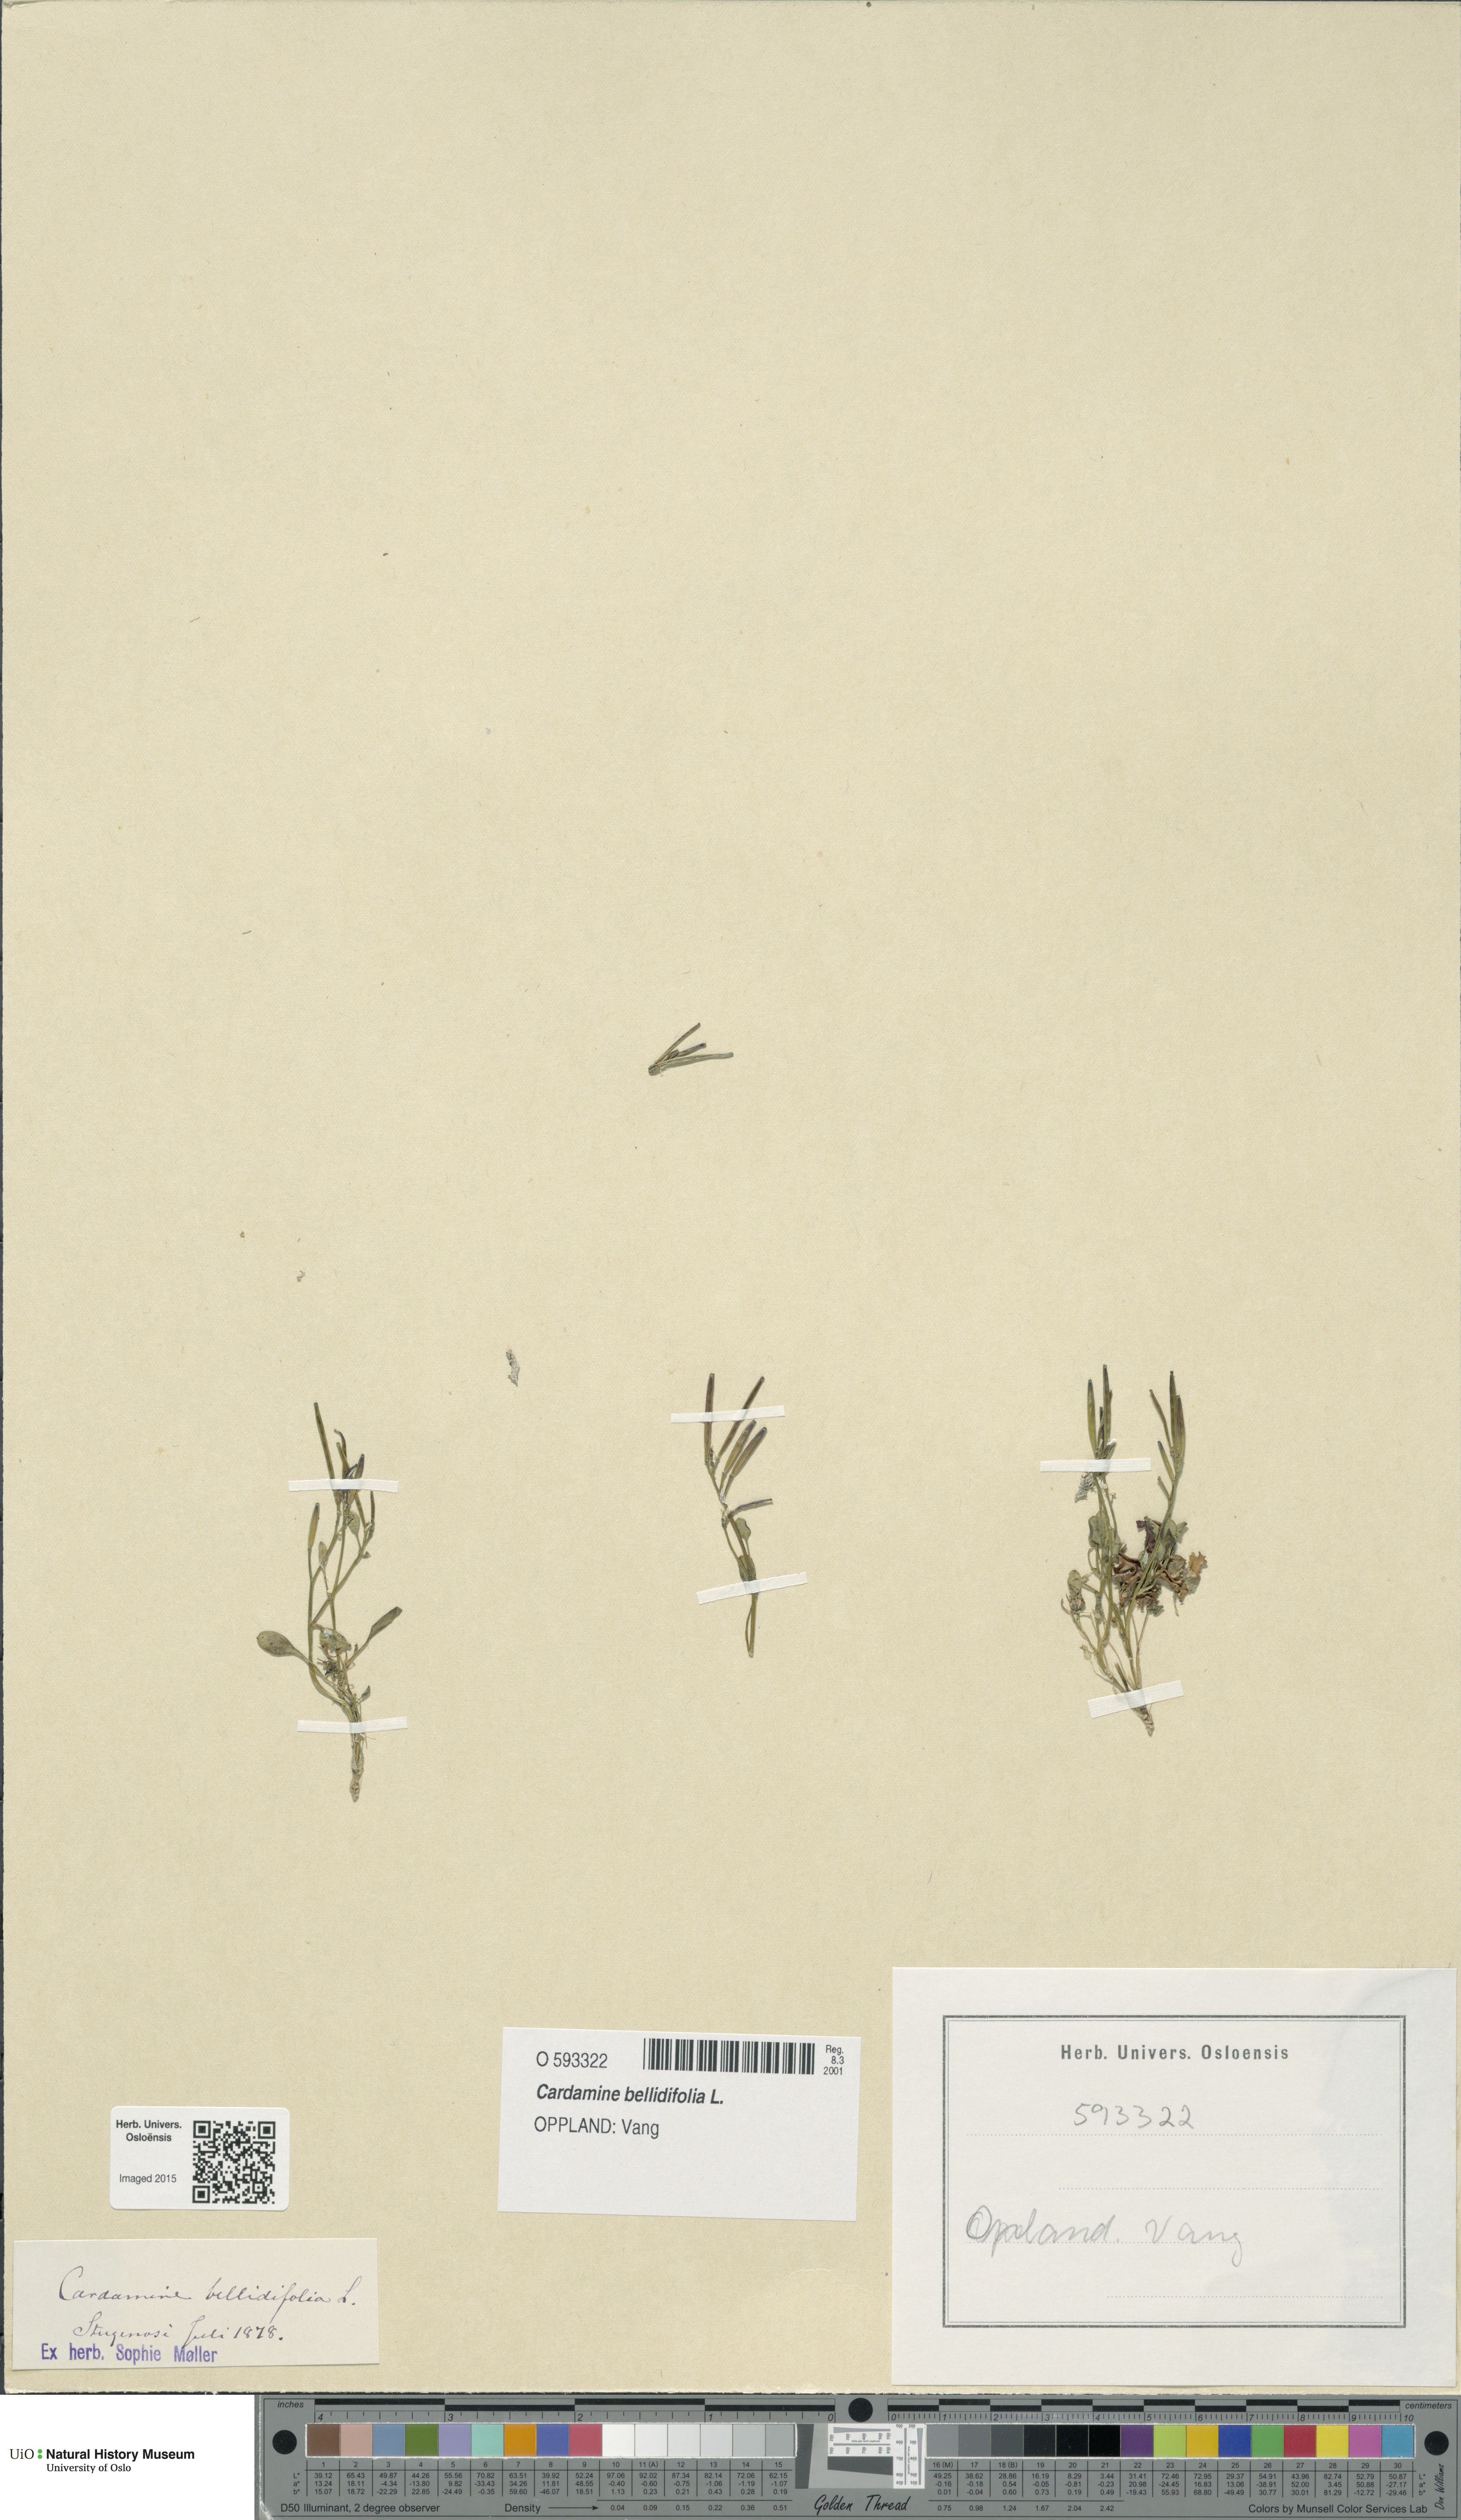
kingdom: Plantae
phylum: Tracheophyta
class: Magnoliopsida
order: Brassicales
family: Brassicaceae
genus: Cardamine
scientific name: Cardamine bellidifolia
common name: Alpine bittercress
